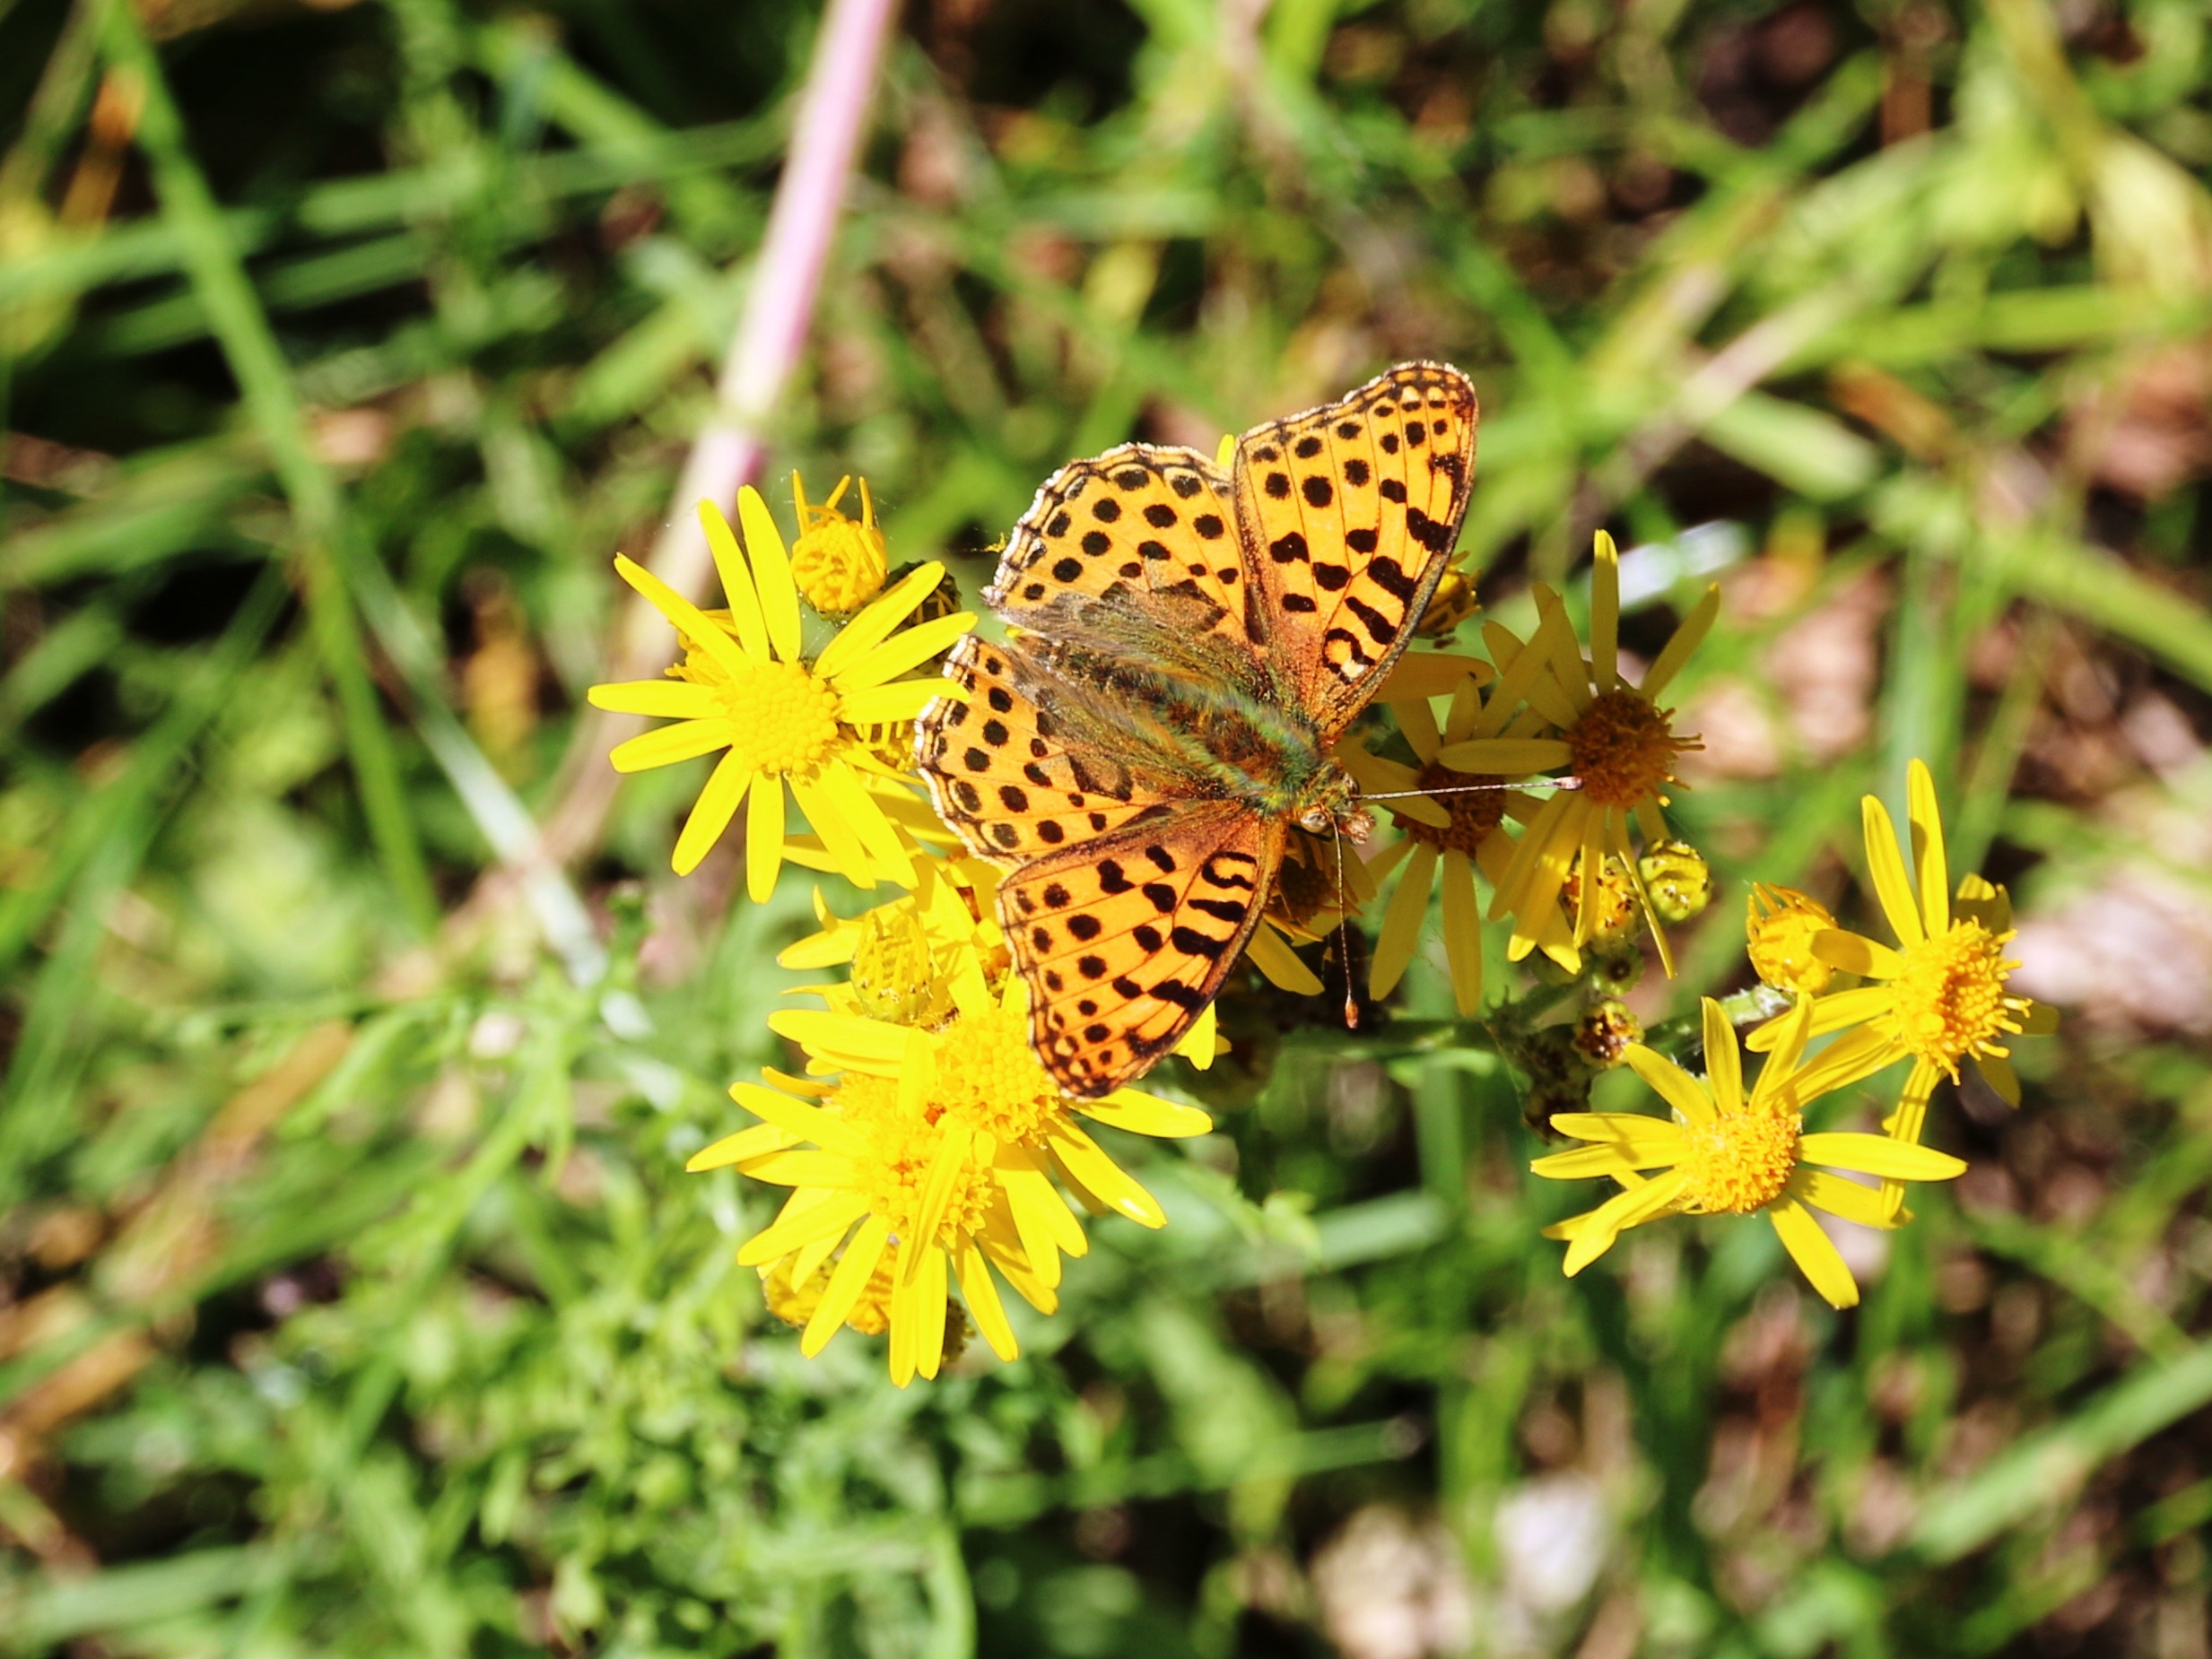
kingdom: Animalia
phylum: Arthropoda
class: Insecta
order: Lepidoptera
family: Nymphalidae
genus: Issoria
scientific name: Issoria lathonia
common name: Storplettet perlemorsommerfugl
